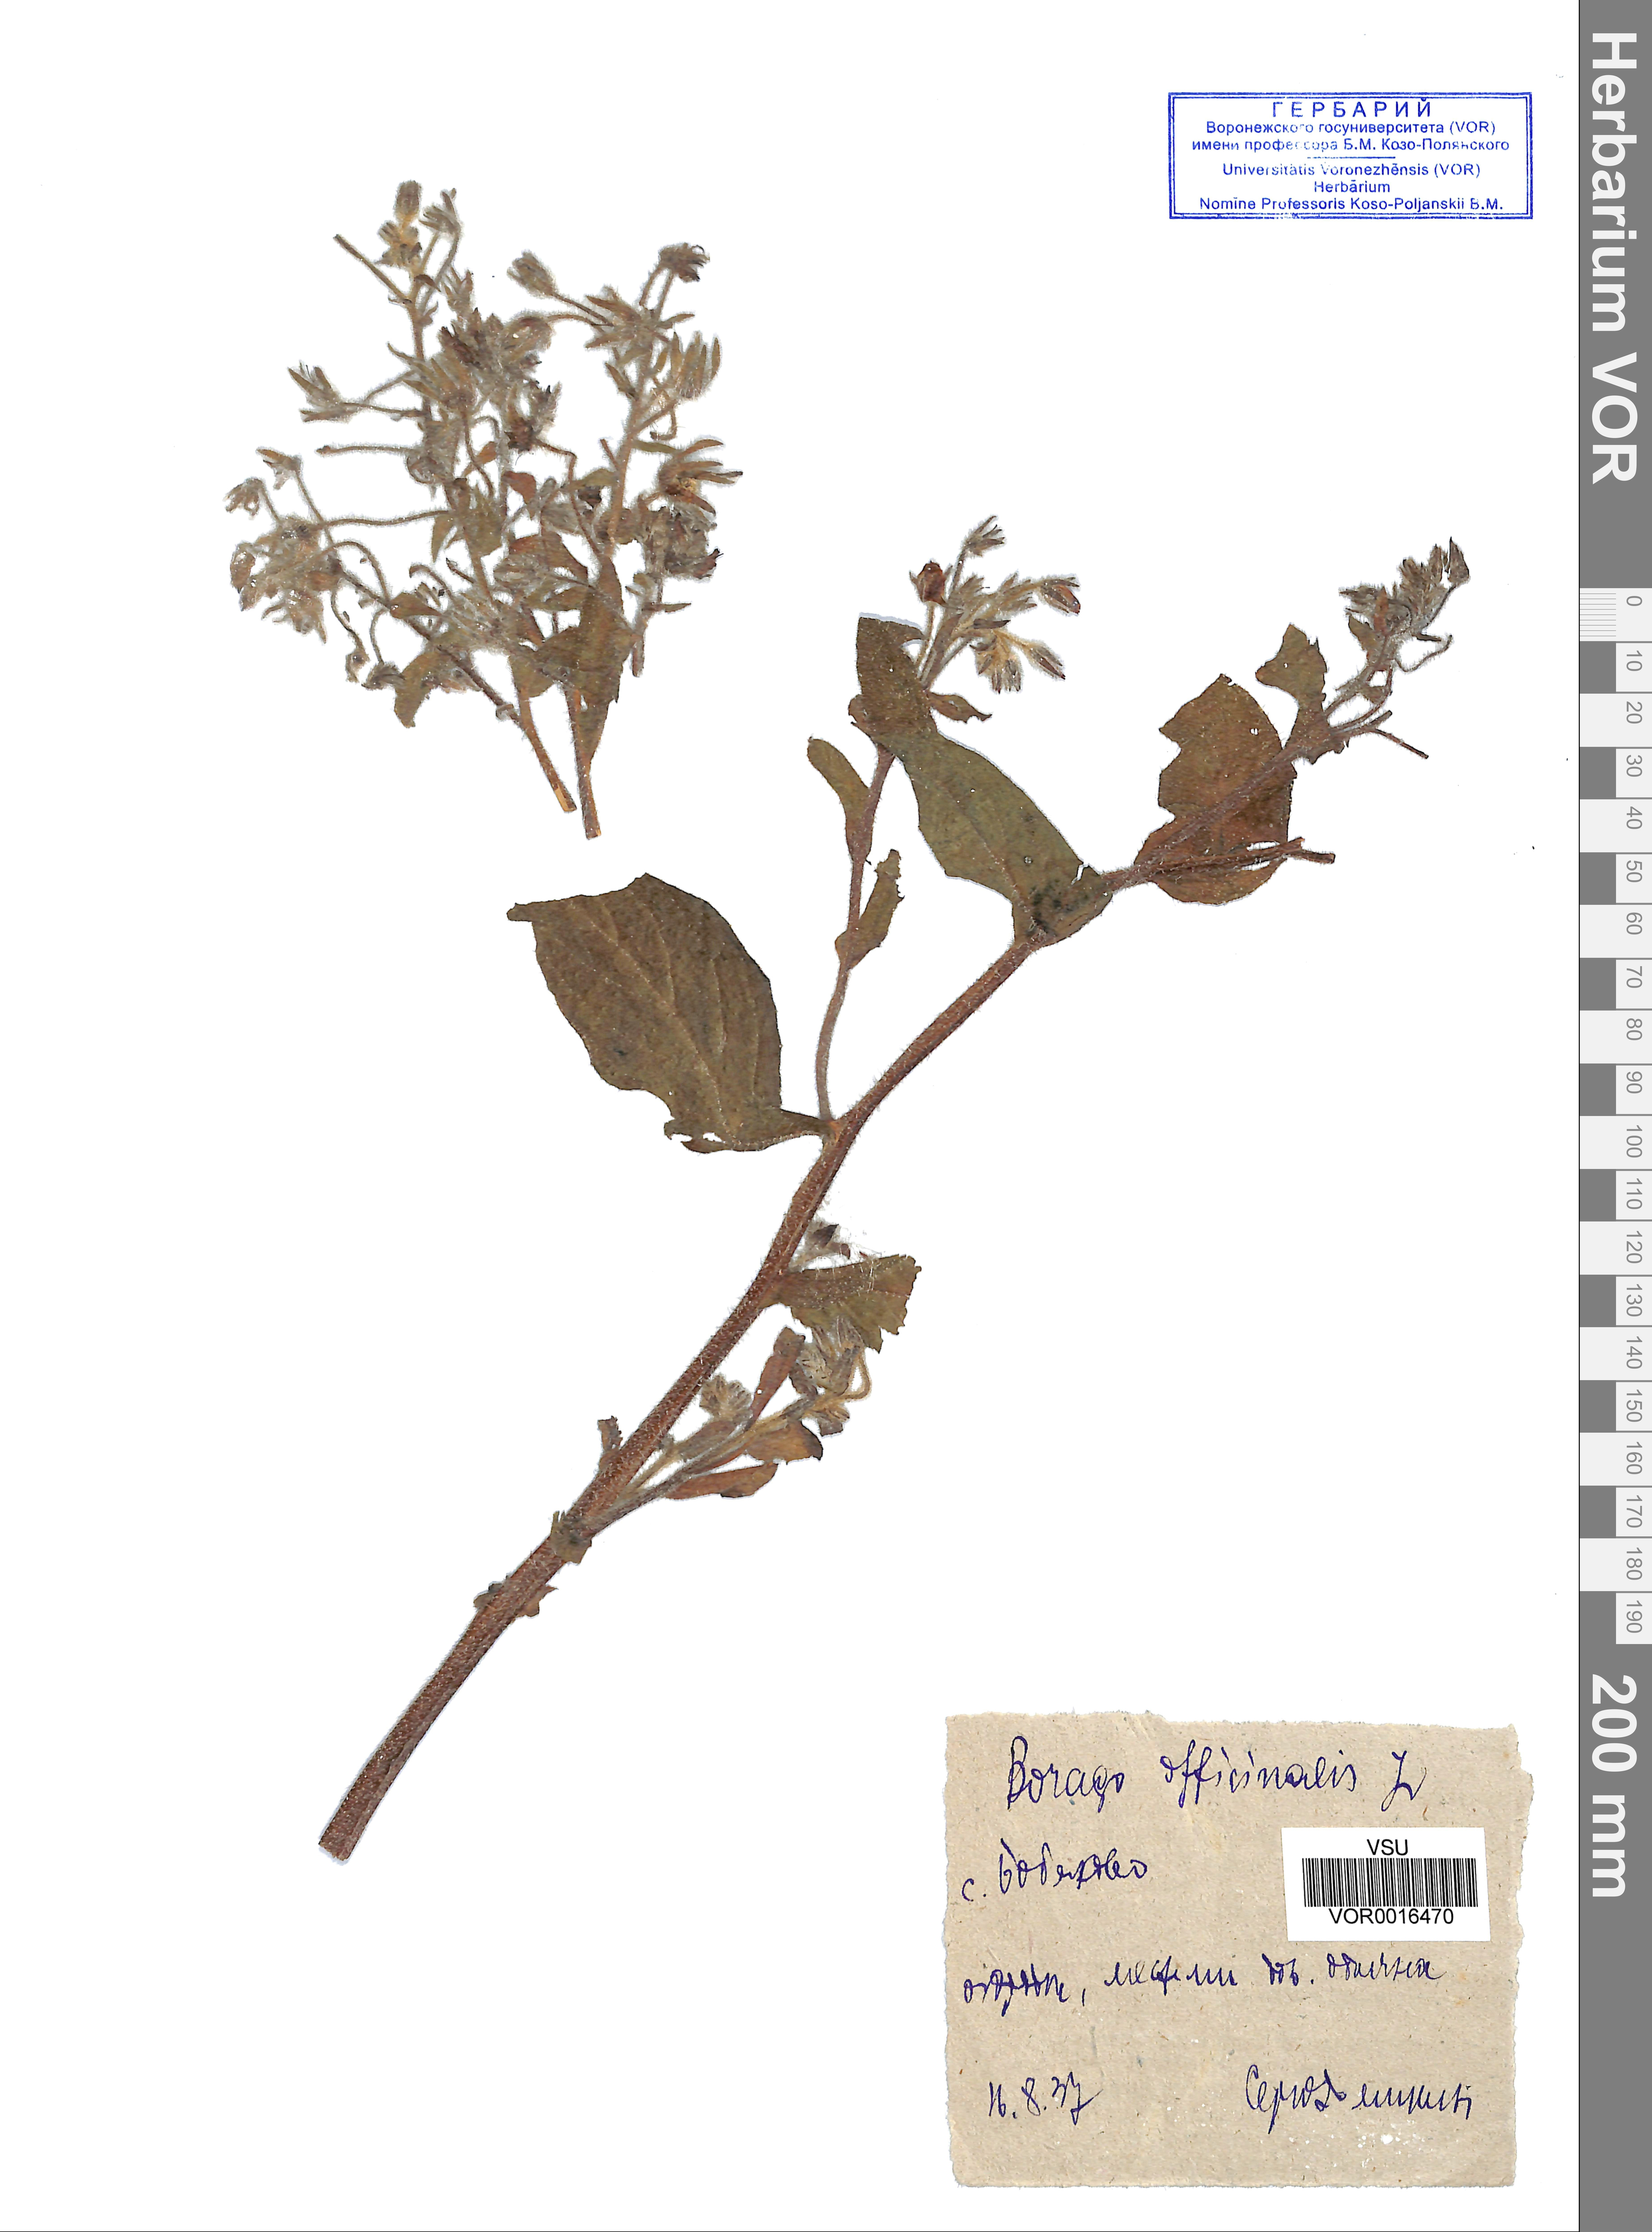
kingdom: Plantae
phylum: Tracheophyta
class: Magnoliopsida
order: Boraginales
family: Boraginaceae
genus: Borago
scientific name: Borago officinalis
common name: Borage
